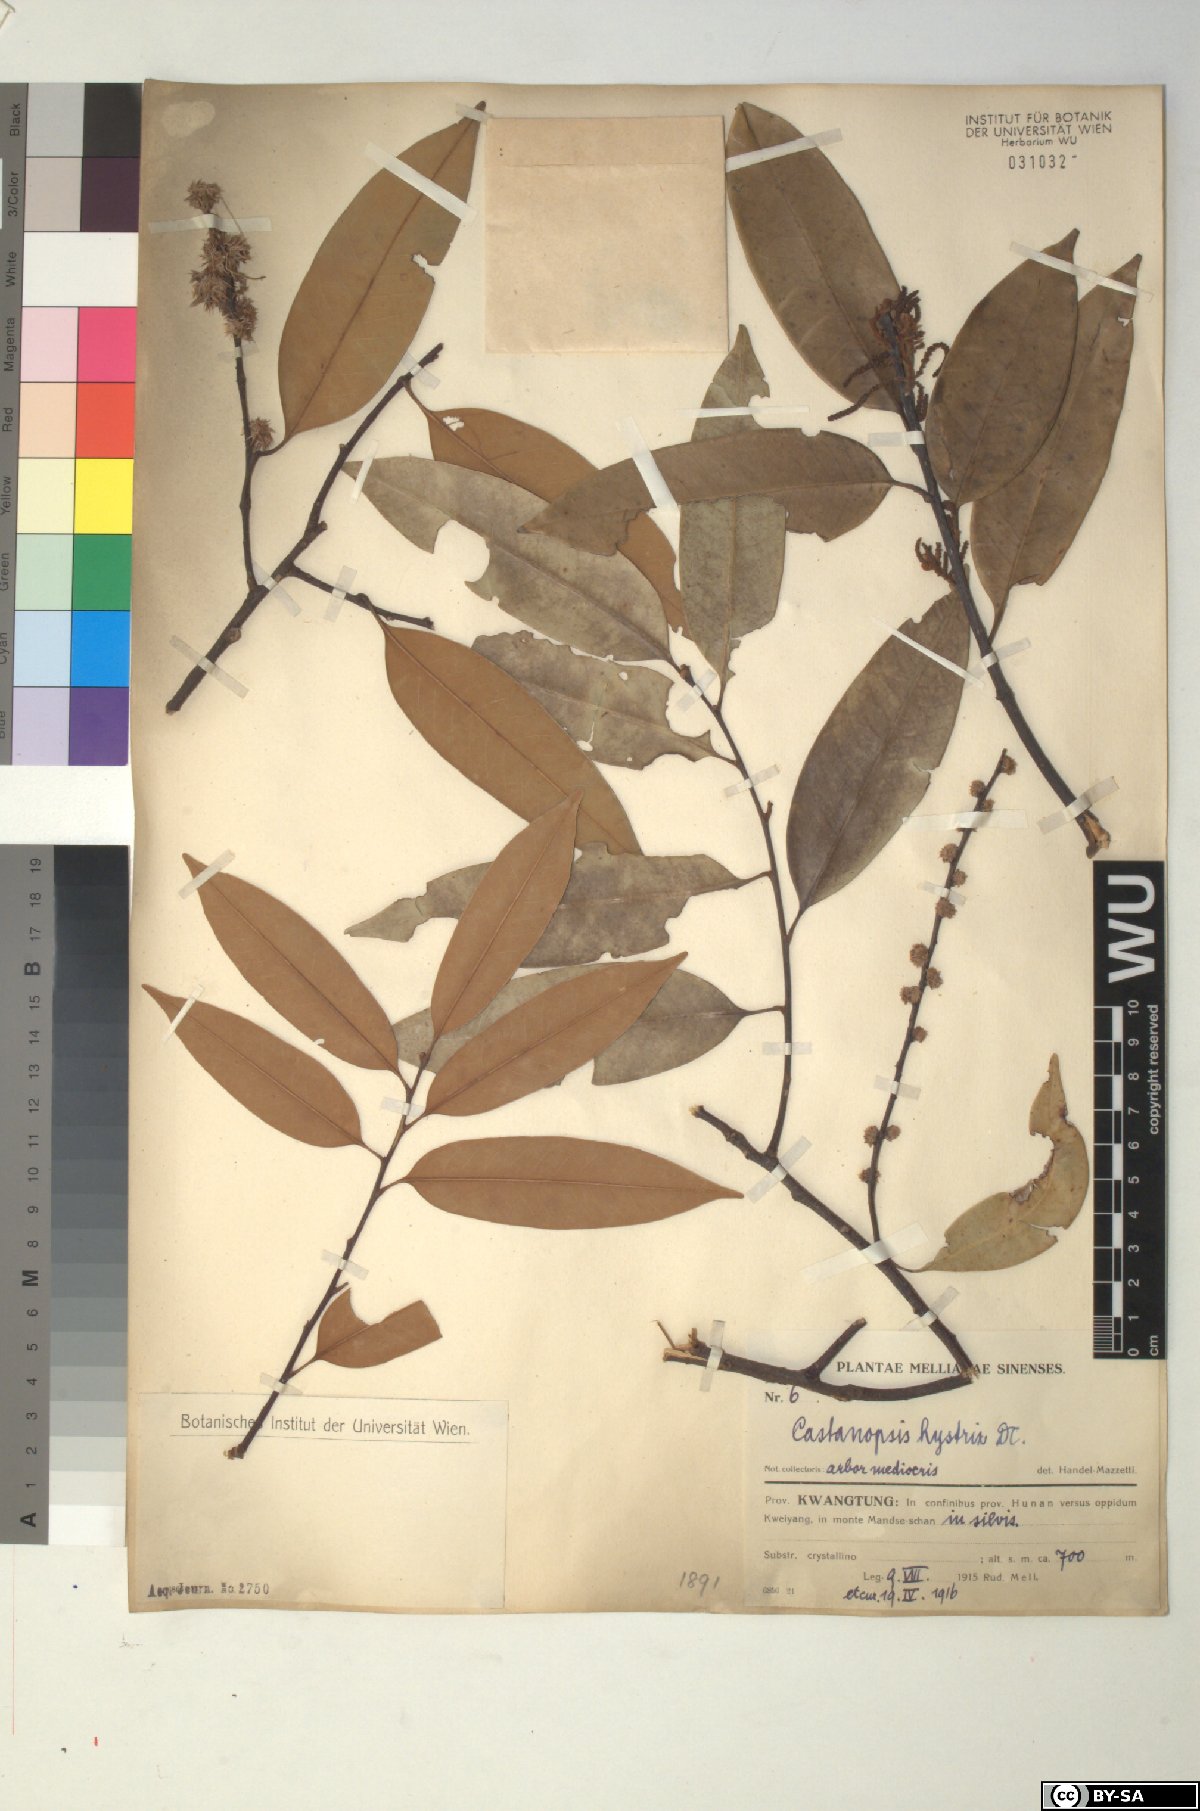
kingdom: Plantae
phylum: Tracheophyta
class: Magnoliopsida
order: Fagales
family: Fagaceae
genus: Castanopsis
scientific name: Castanopsis hystrix
